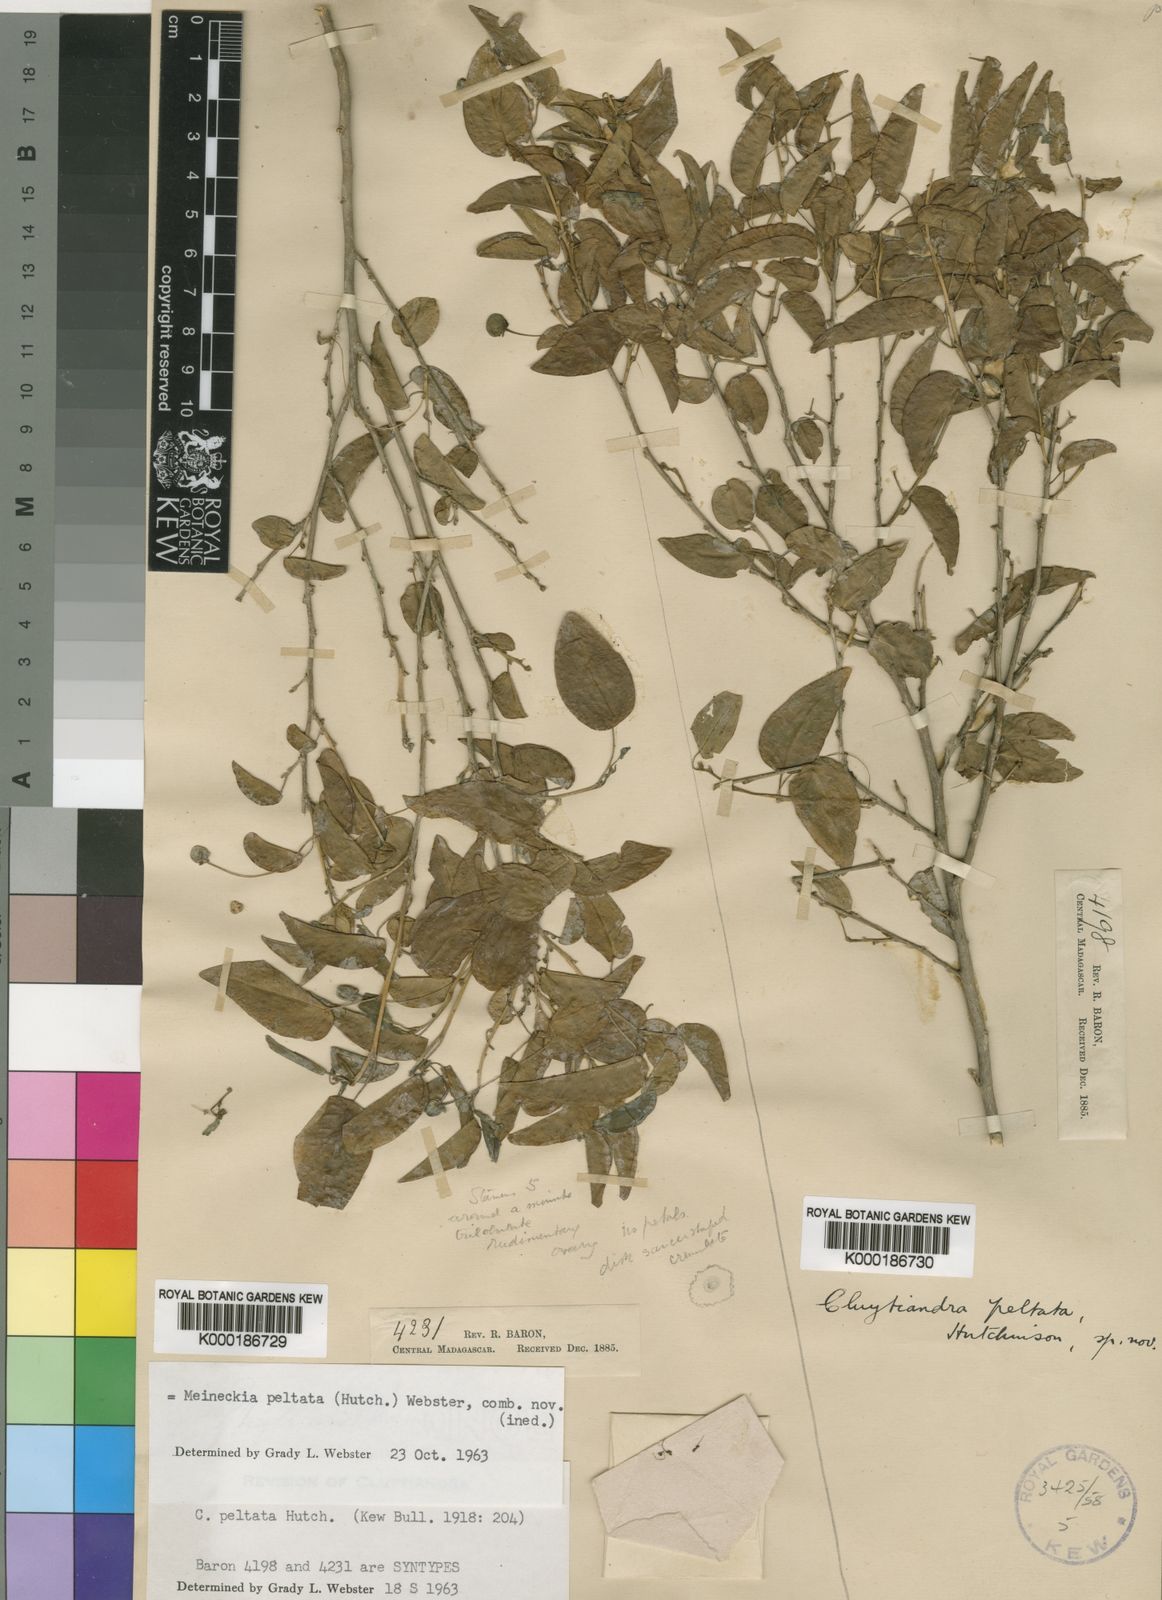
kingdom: Plantae
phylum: Tracheophyta
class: Magnoliopsida
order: Malpighiales
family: Phyllanthaceae
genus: Meineckia
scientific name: Meineckia peltata
